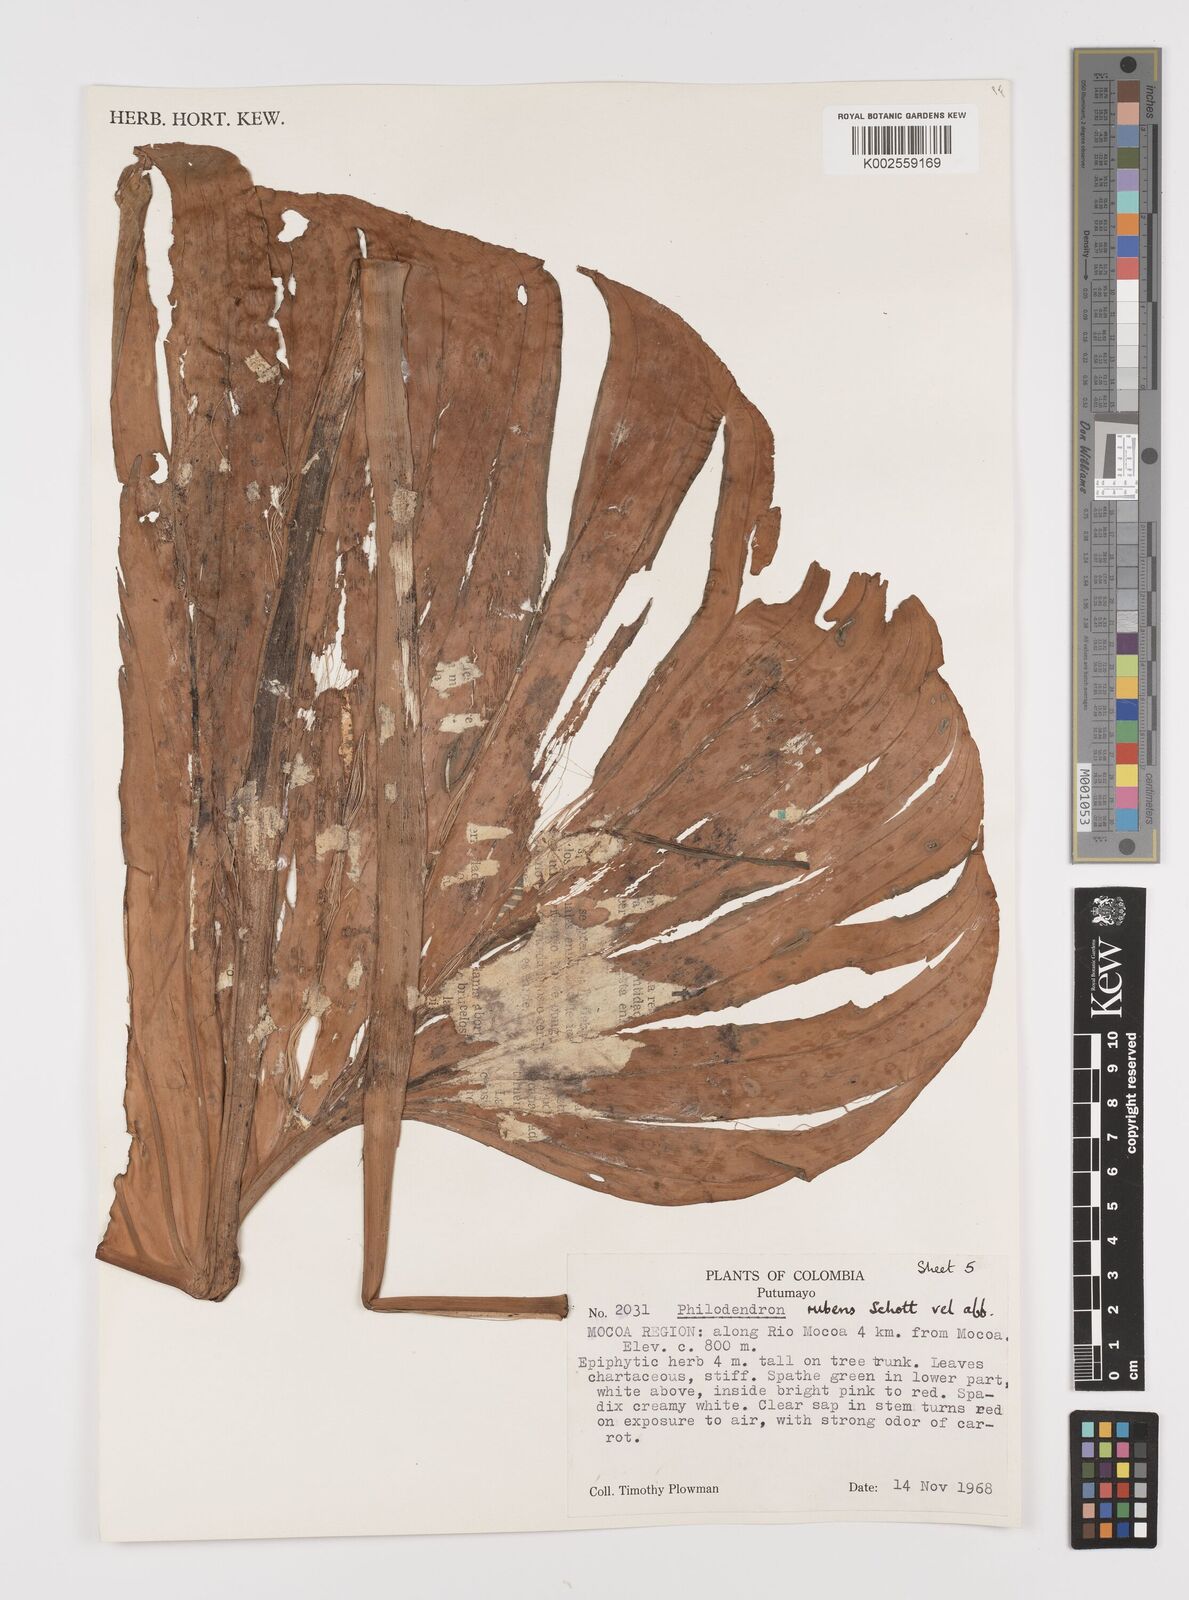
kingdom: Plantae
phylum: Tracheophyta
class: Liliopsida
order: Alismatales
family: Araceae
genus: Philodendron
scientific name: Philodendron ornatum
